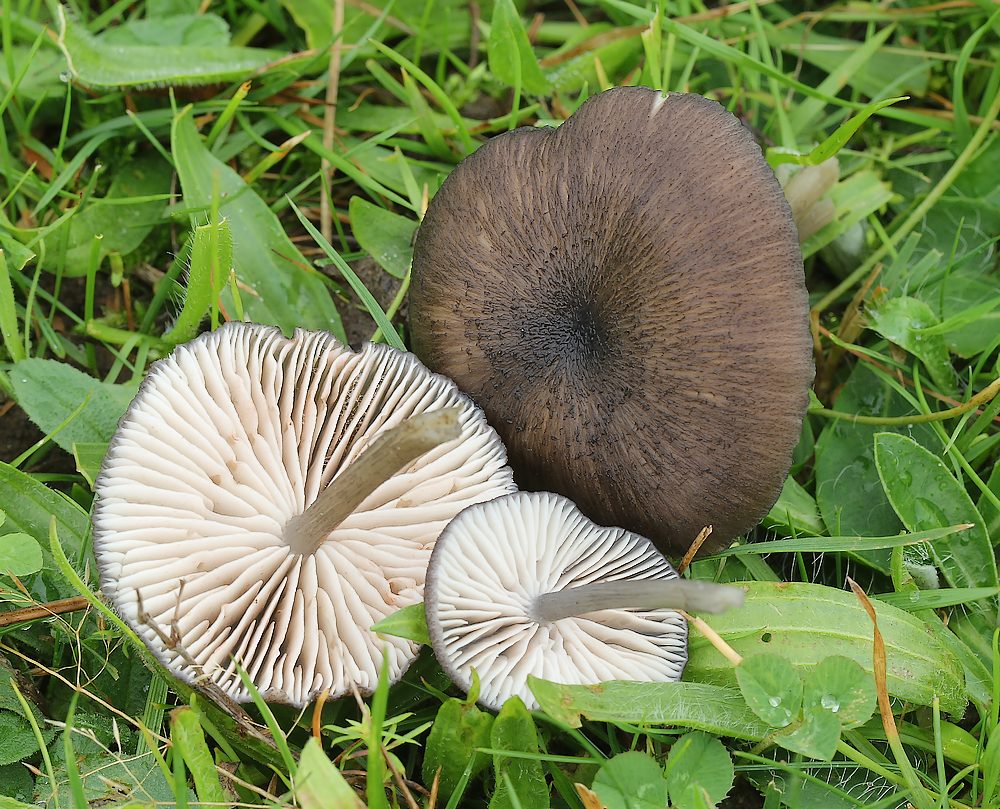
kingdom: Fungi
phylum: Basidiomycota
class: Agaricomycetes
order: Agaricales
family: Entolomataceae
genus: Entoloma
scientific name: Entoloma
